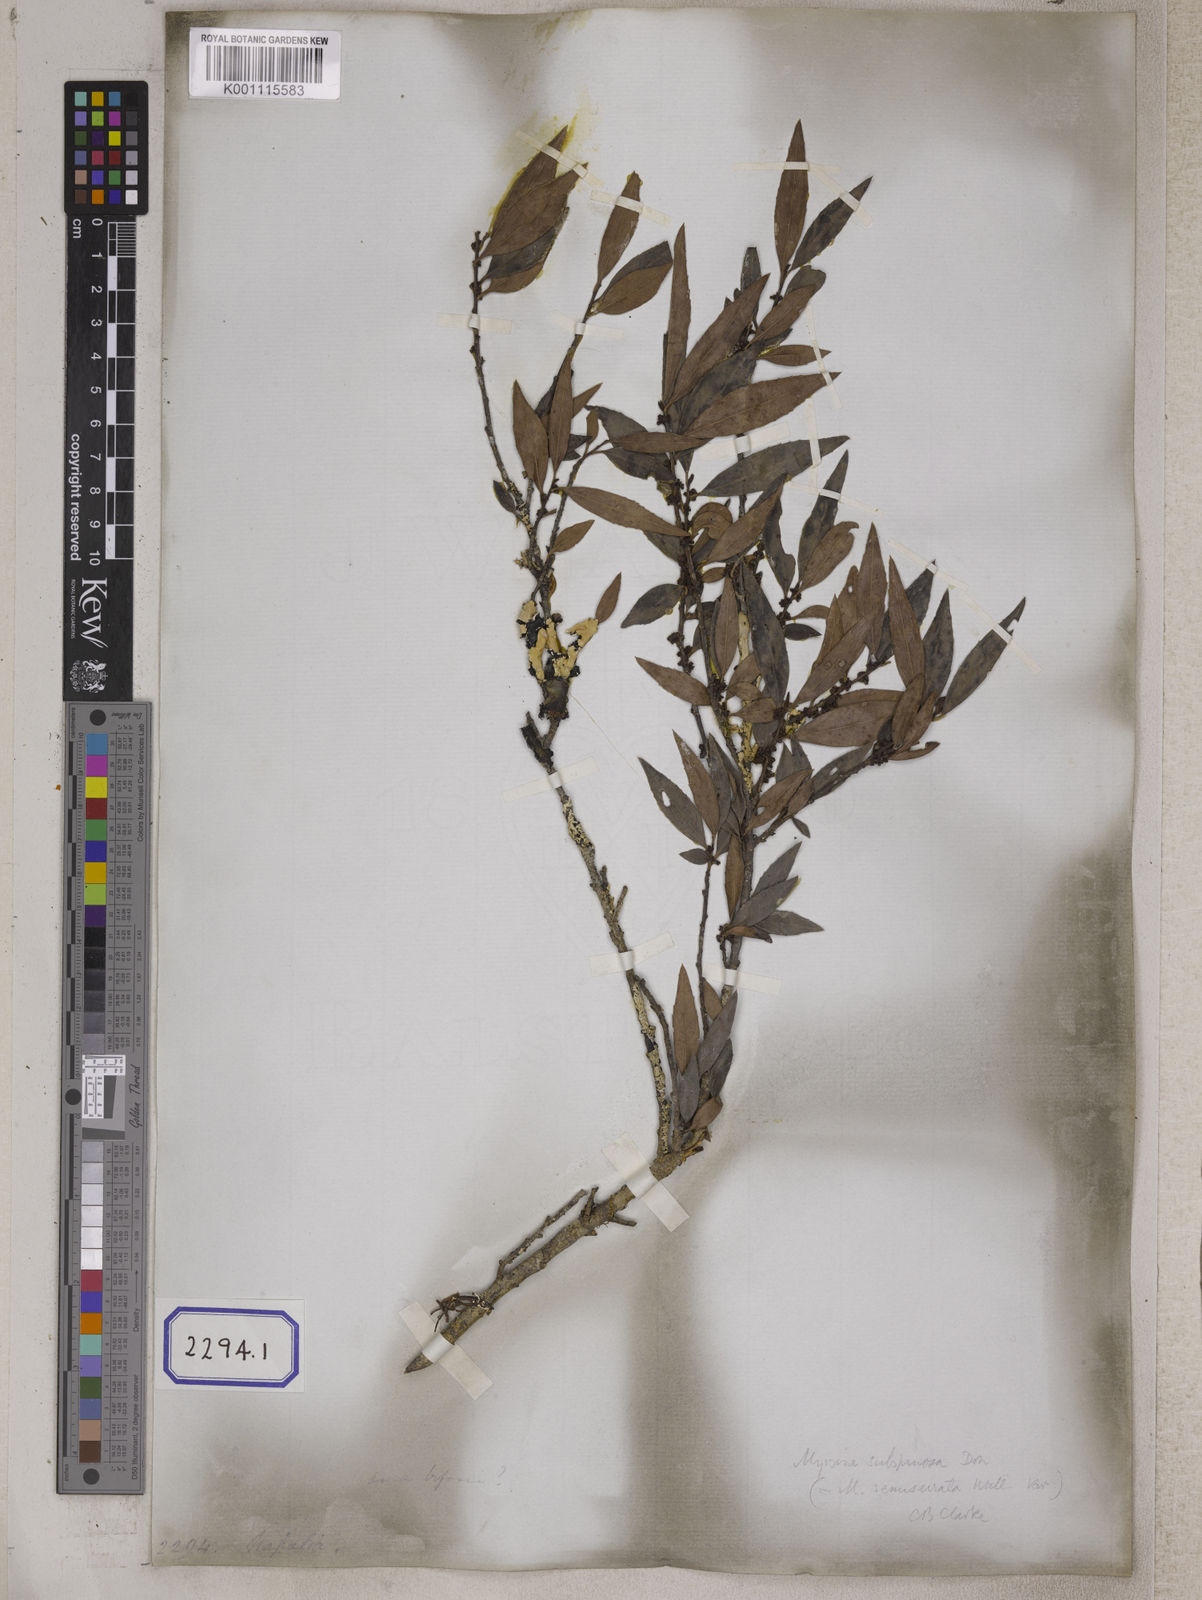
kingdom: Plantae
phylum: Tracheophyta
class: Magnoliopsida
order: Ericales
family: Primulaceae
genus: Myrsine
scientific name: Myrsine africana
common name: African-boxwood
